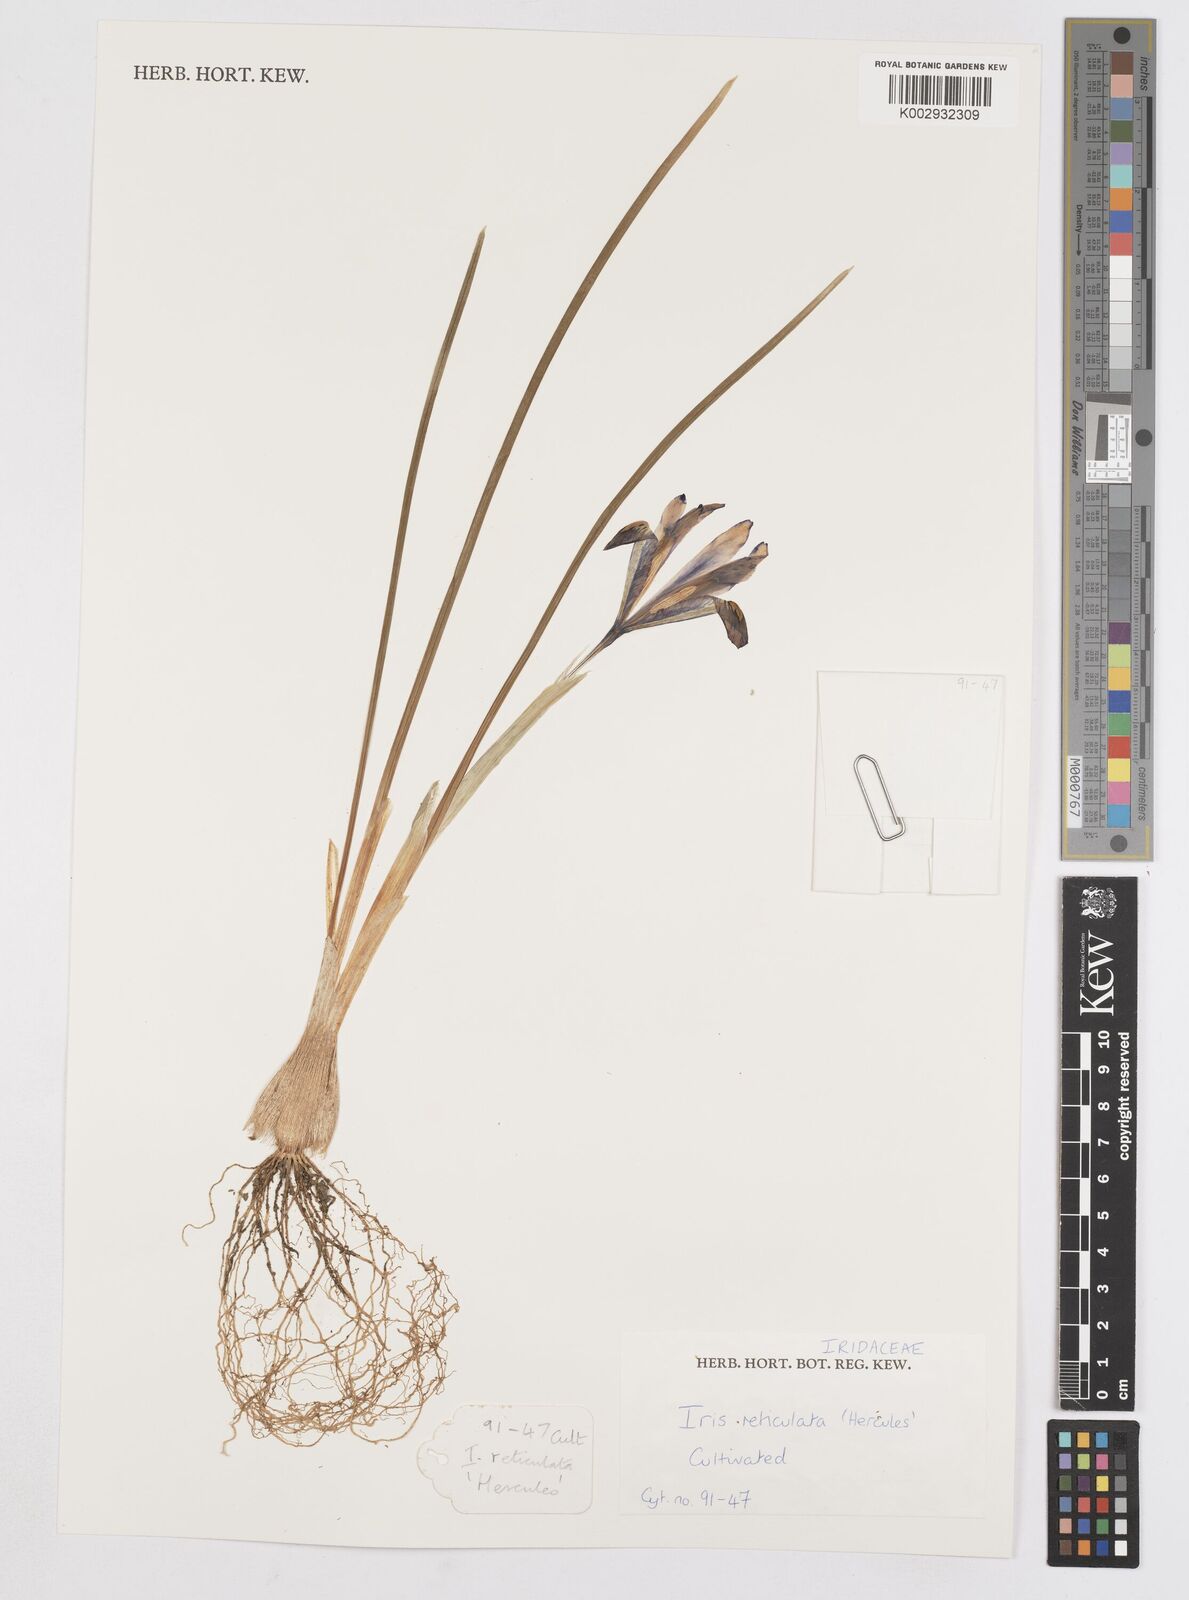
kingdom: Plantae
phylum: Tracheophyta
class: Liliopsida
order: Asparagales
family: Iridaceae
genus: Iris
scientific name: Iris reticulata
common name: Netted iris
